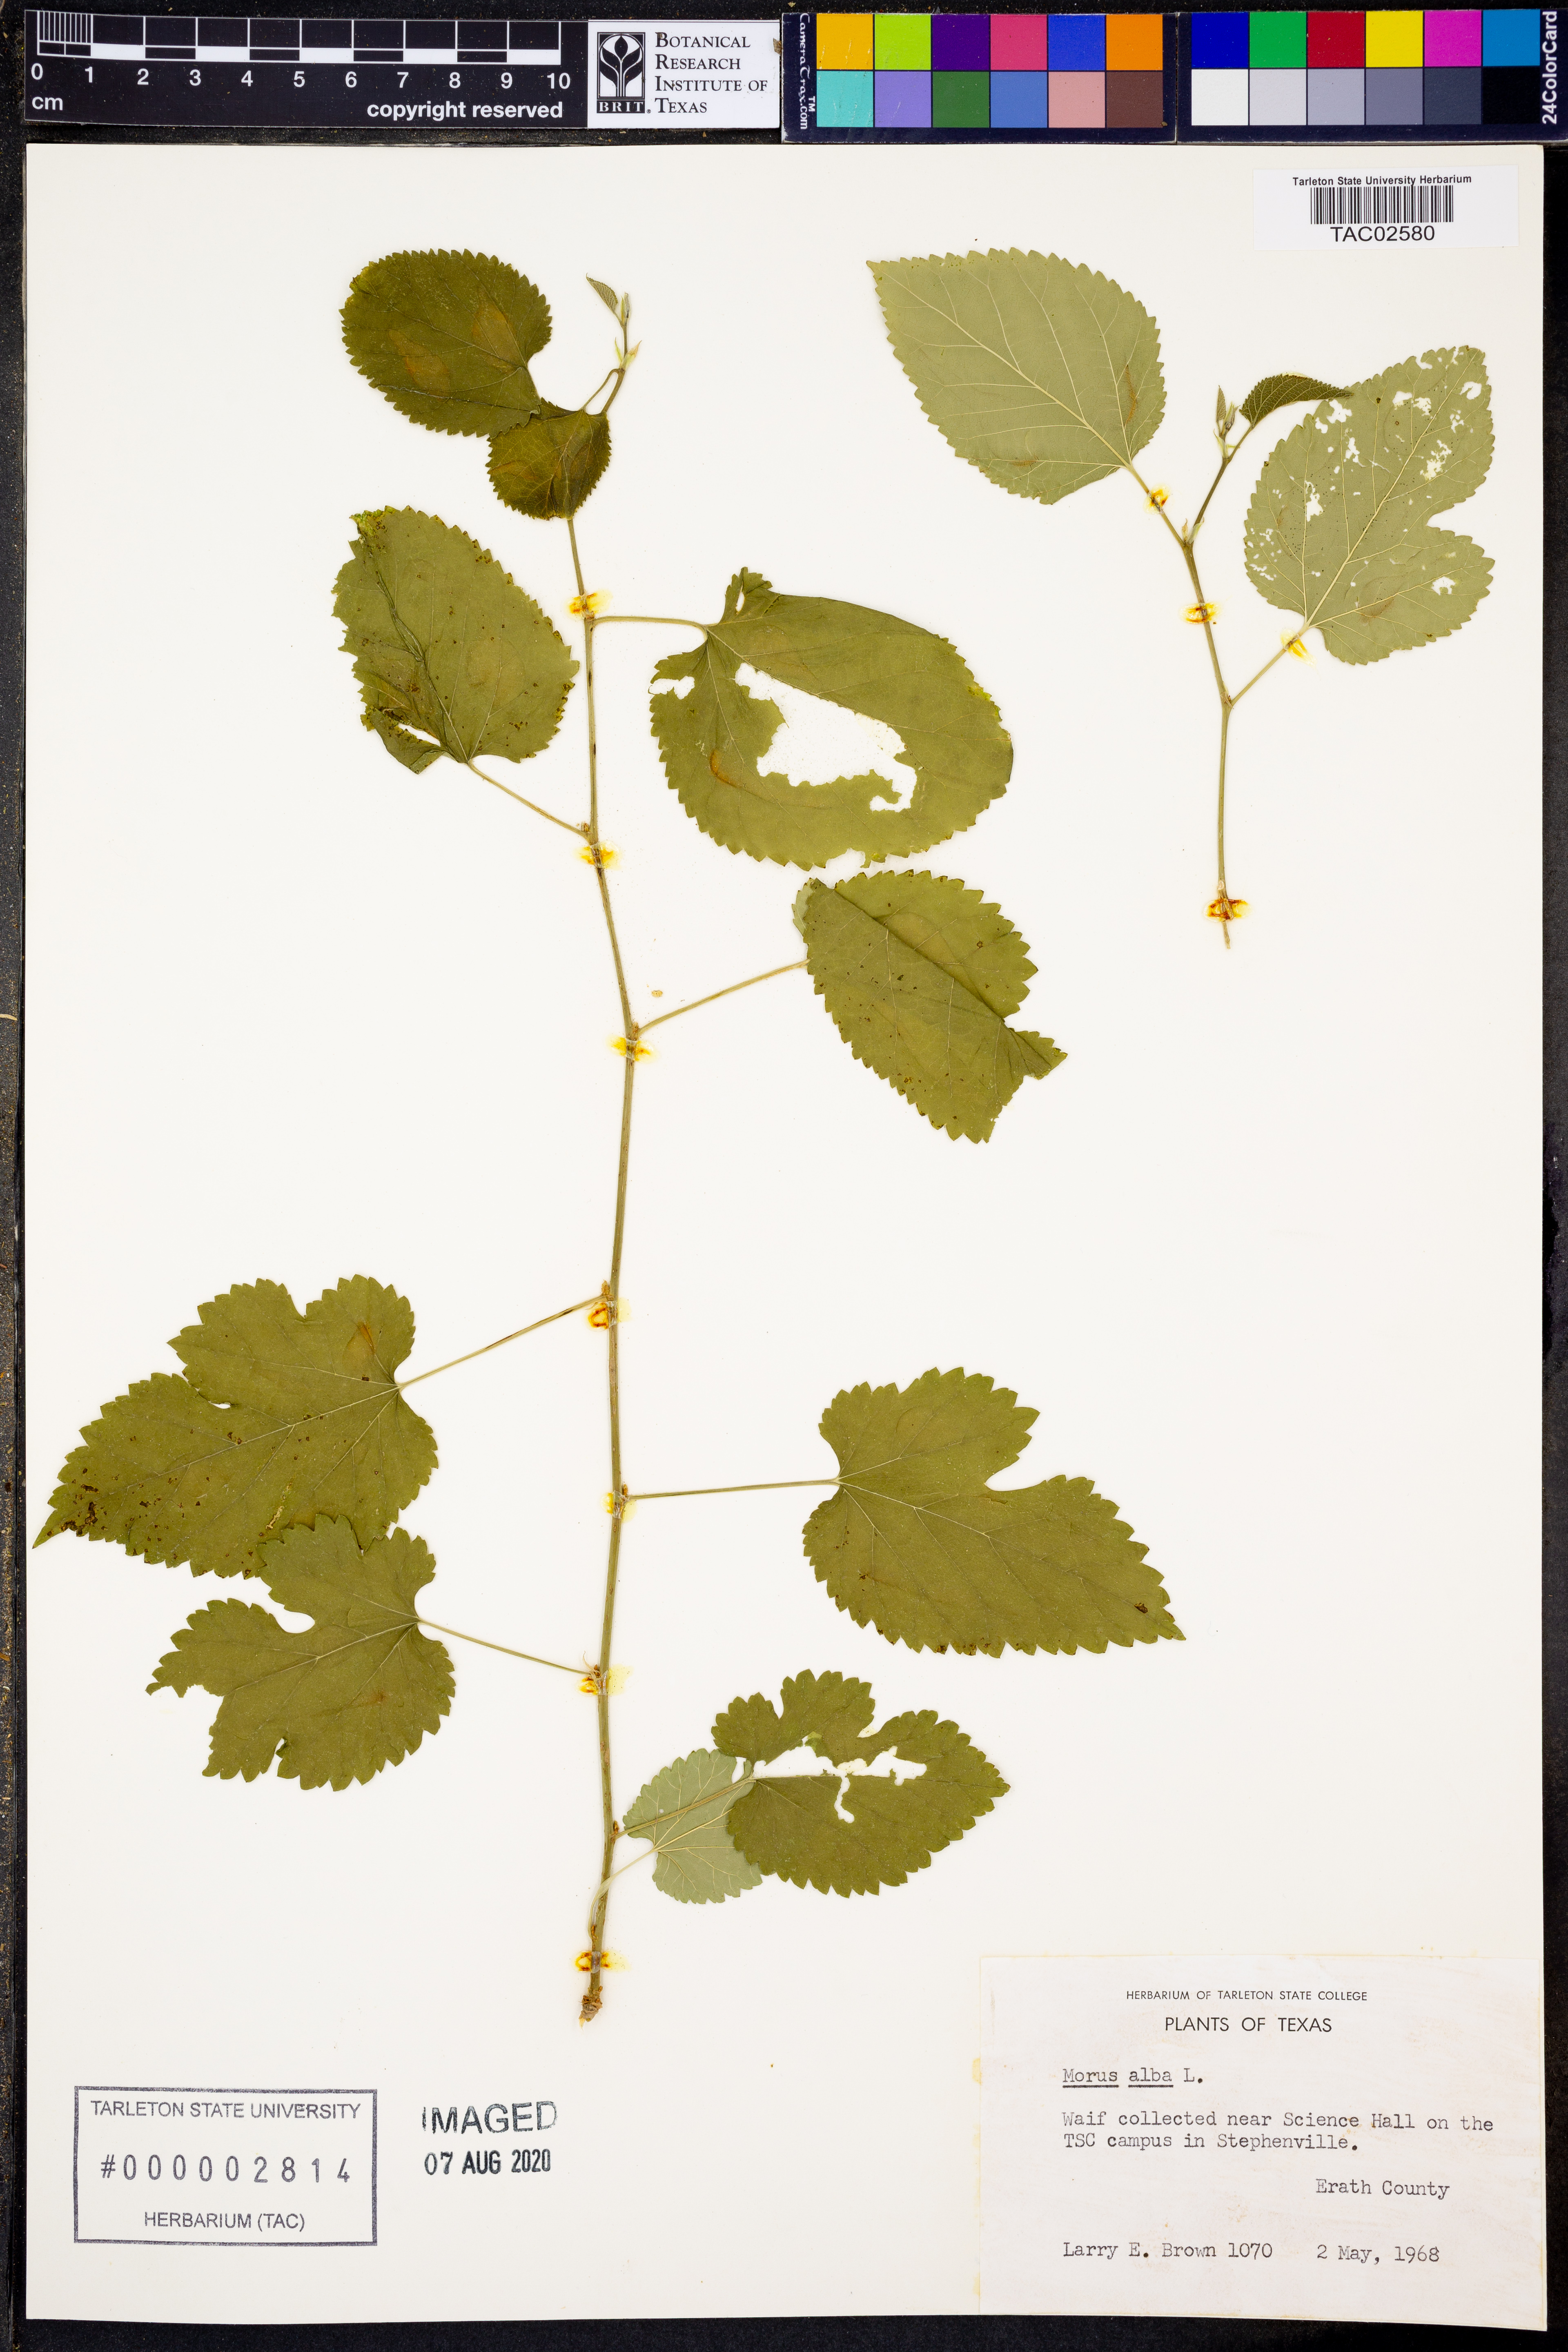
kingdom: Plantae
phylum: Tracheophyta
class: Magnoliopsida
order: Rosales
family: Moraceae
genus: Morus
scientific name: Morus alba
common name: White mulberry
